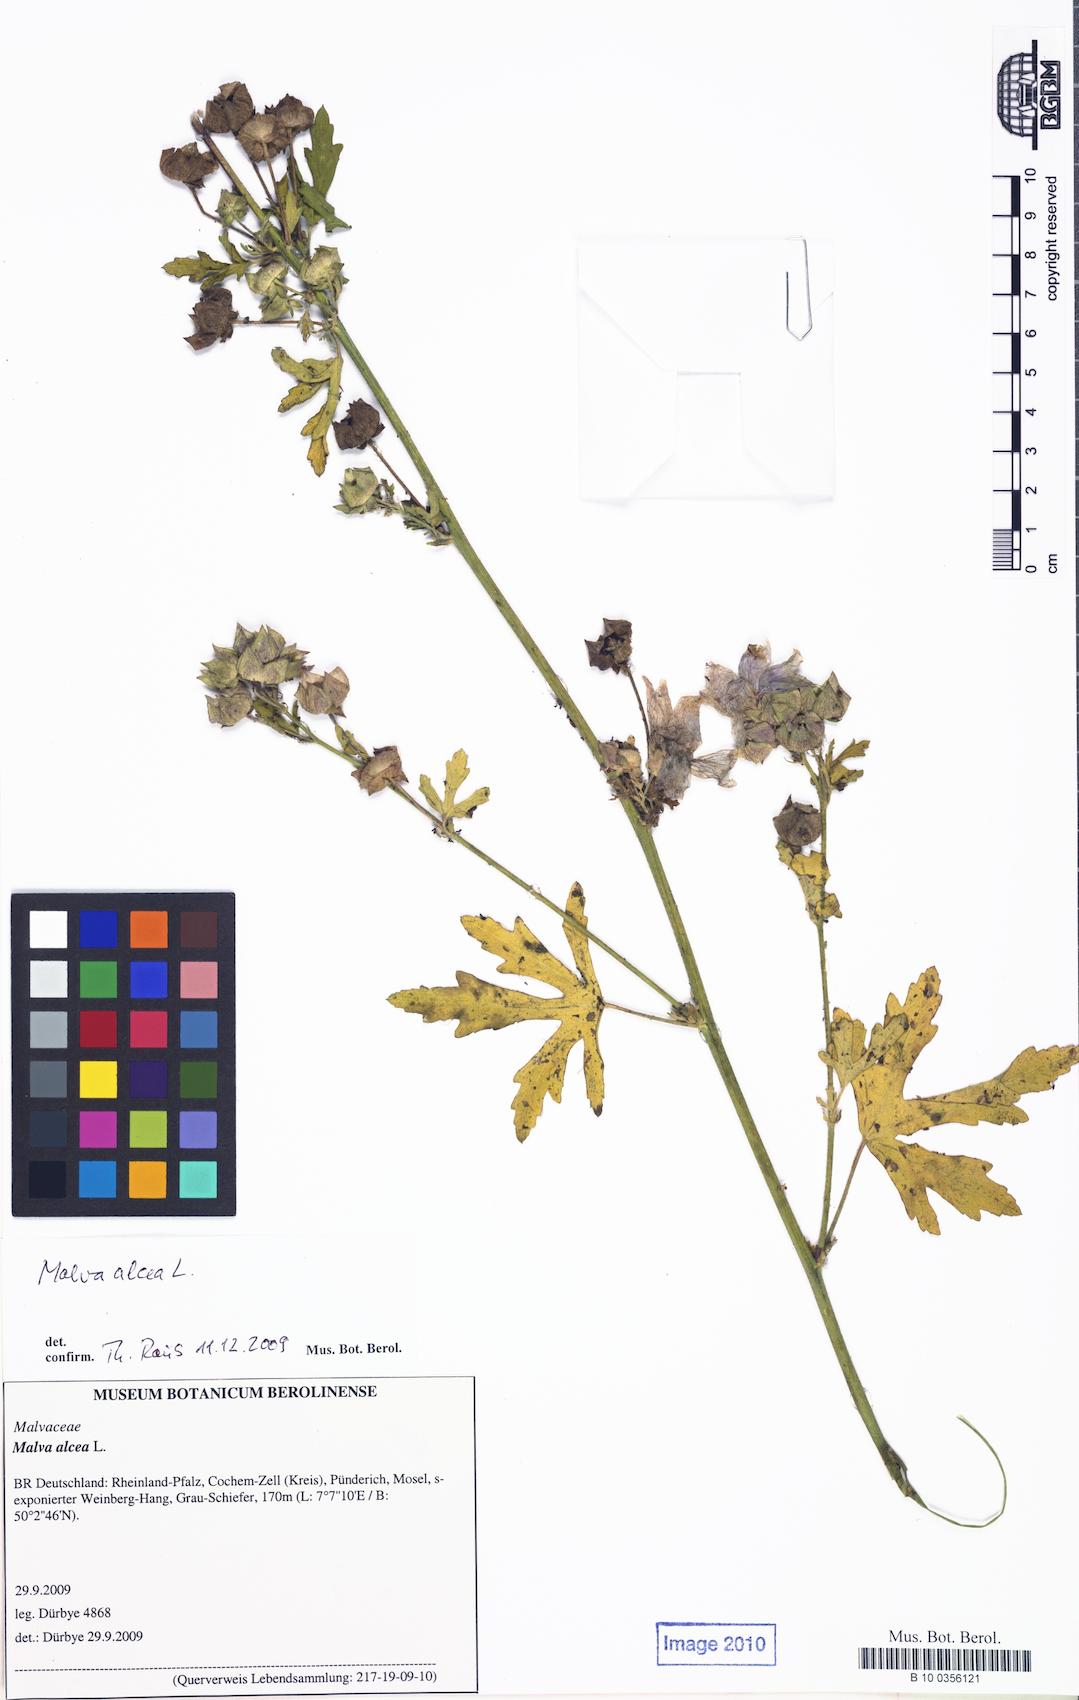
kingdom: Plantae
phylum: Tracheophyta
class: Magnoliopsida
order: Malvales
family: Malvaceae
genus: Malva
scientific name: Malva alcea
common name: Greater musk-mallow
